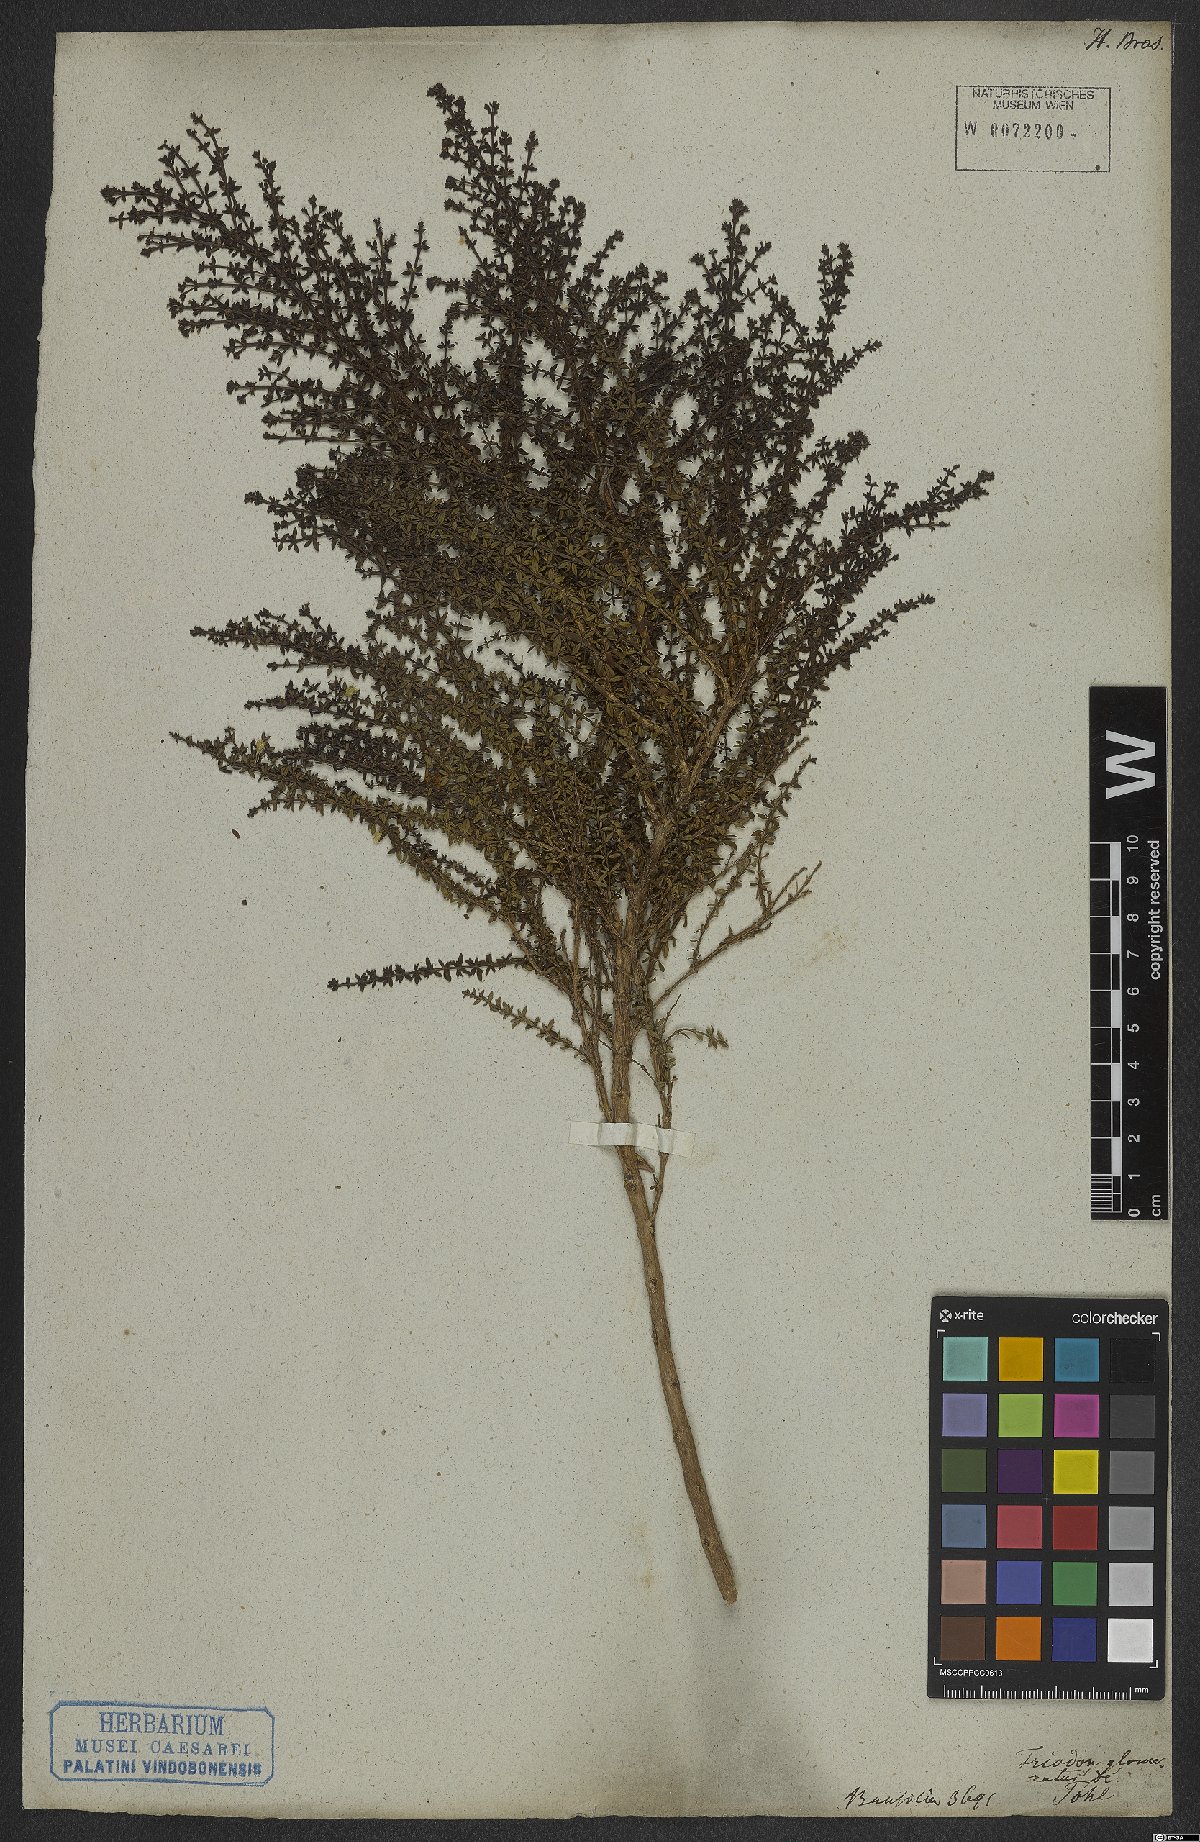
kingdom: Plantae
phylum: Tracheophyta
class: Magnoliopsida
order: Gentianales
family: Rubiaceae
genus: Galianthe
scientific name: Galianthe brasiliensis
